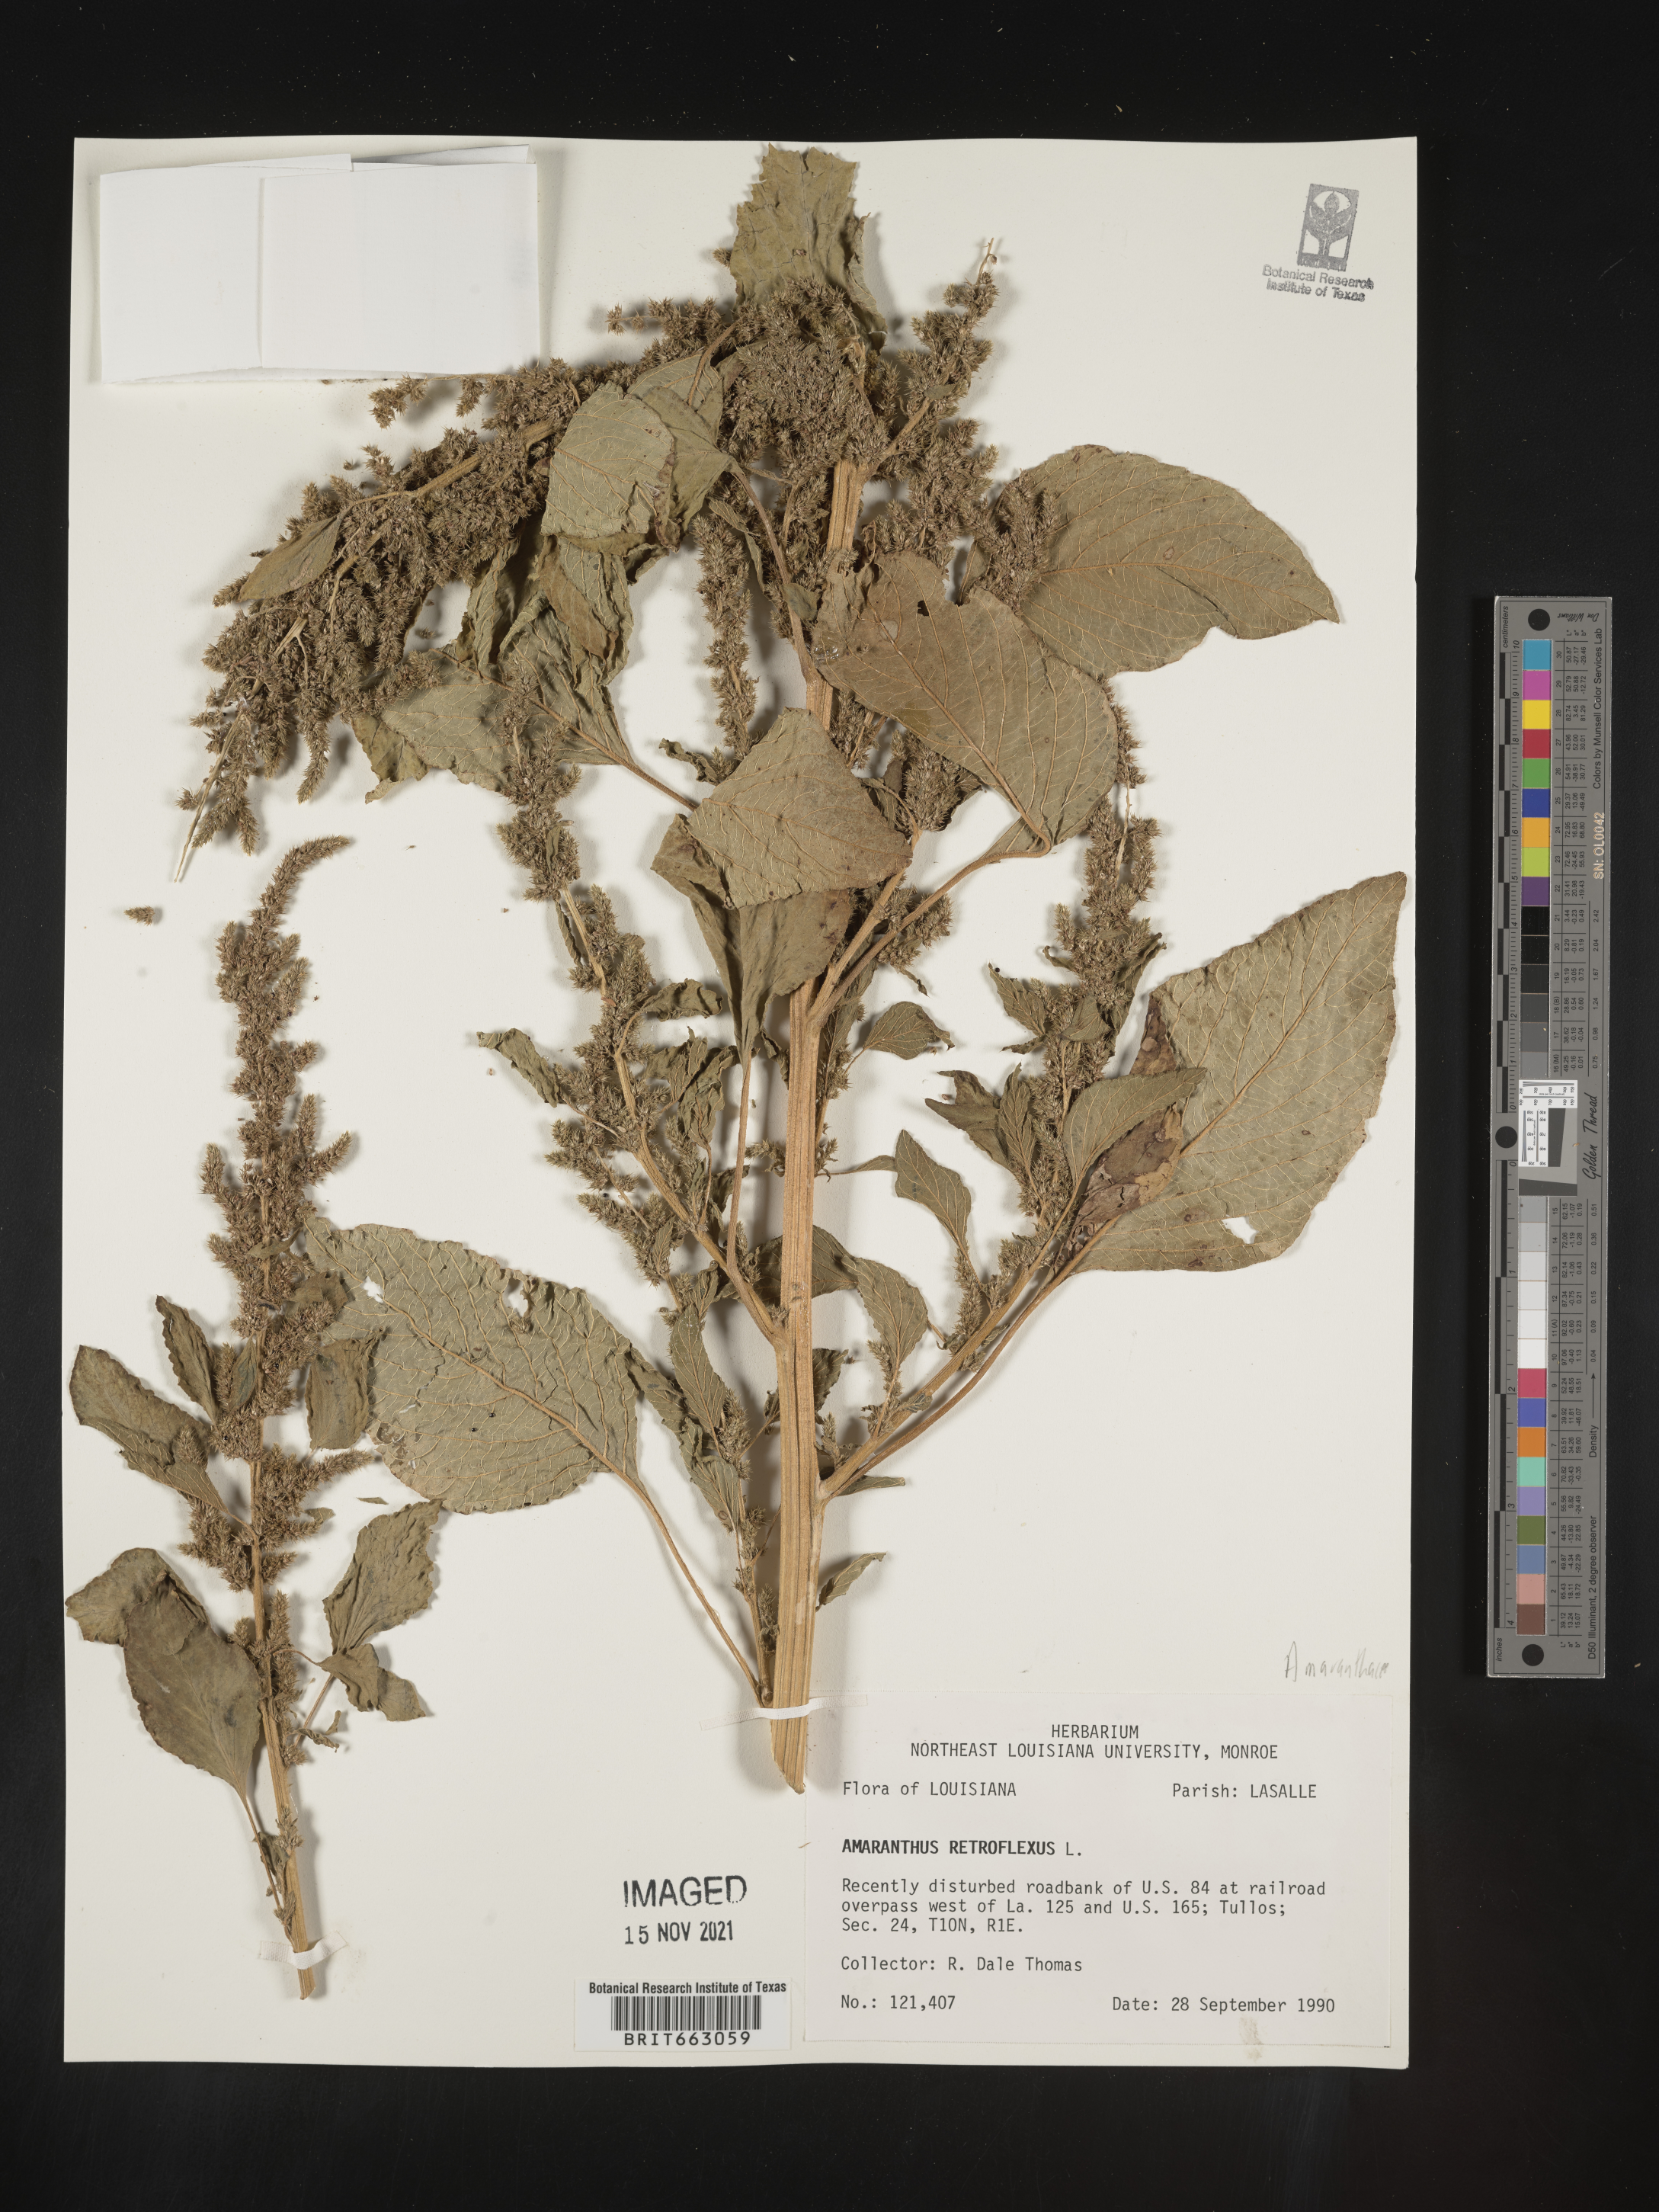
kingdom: Plantae
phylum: Tracheophyta
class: Magnoliopsida
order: Caryophyllales
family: Amaranthaceae
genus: Amaranthus
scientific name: Amaranthus retroflexus
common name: Redroot amaranth
